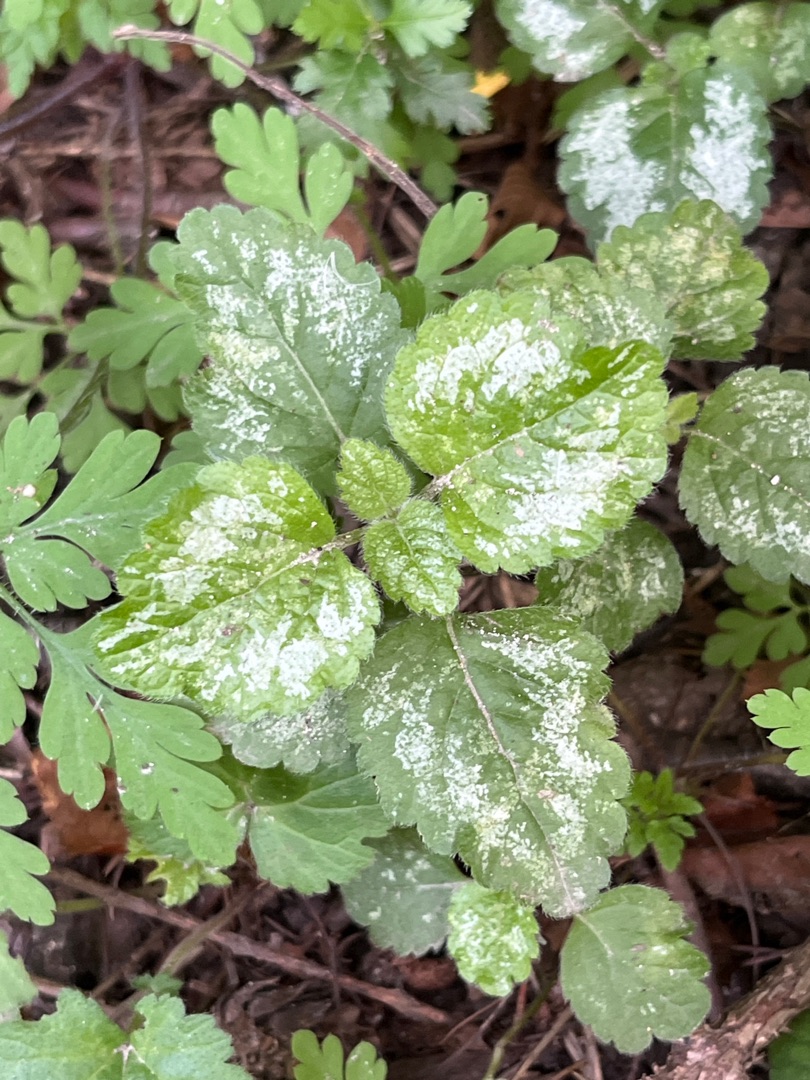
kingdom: Plantae
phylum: Tracheophyta
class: Magnoliopsida
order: Lamiales
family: Lamiaceae
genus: Lamium
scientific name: Lamium galeobdolon
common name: Have-guldnælde
